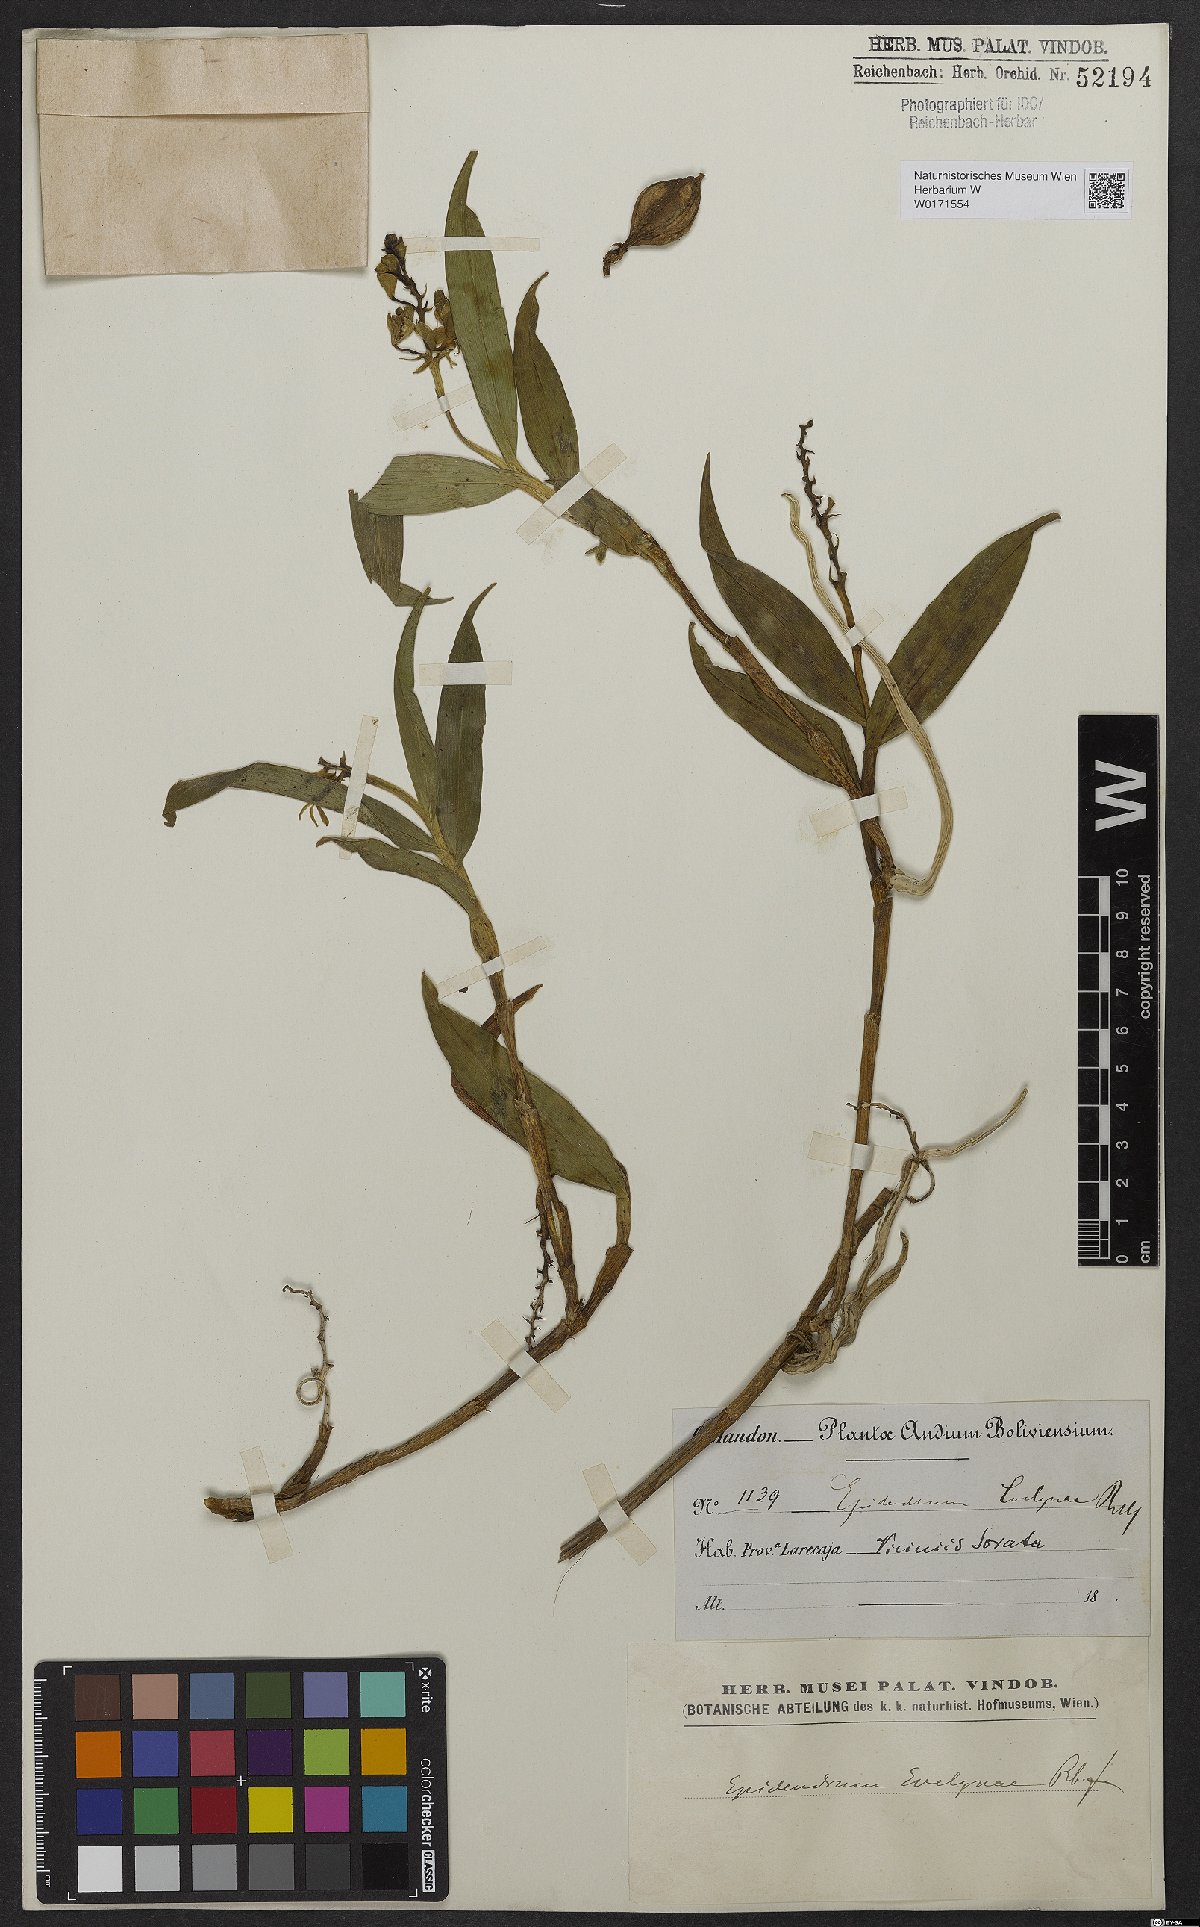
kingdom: Plantae
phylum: Tracheophyta
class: Liliopsida
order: Asparagales
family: Orchidaceae
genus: Epidendrum
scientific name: Epidendrum evelynae
